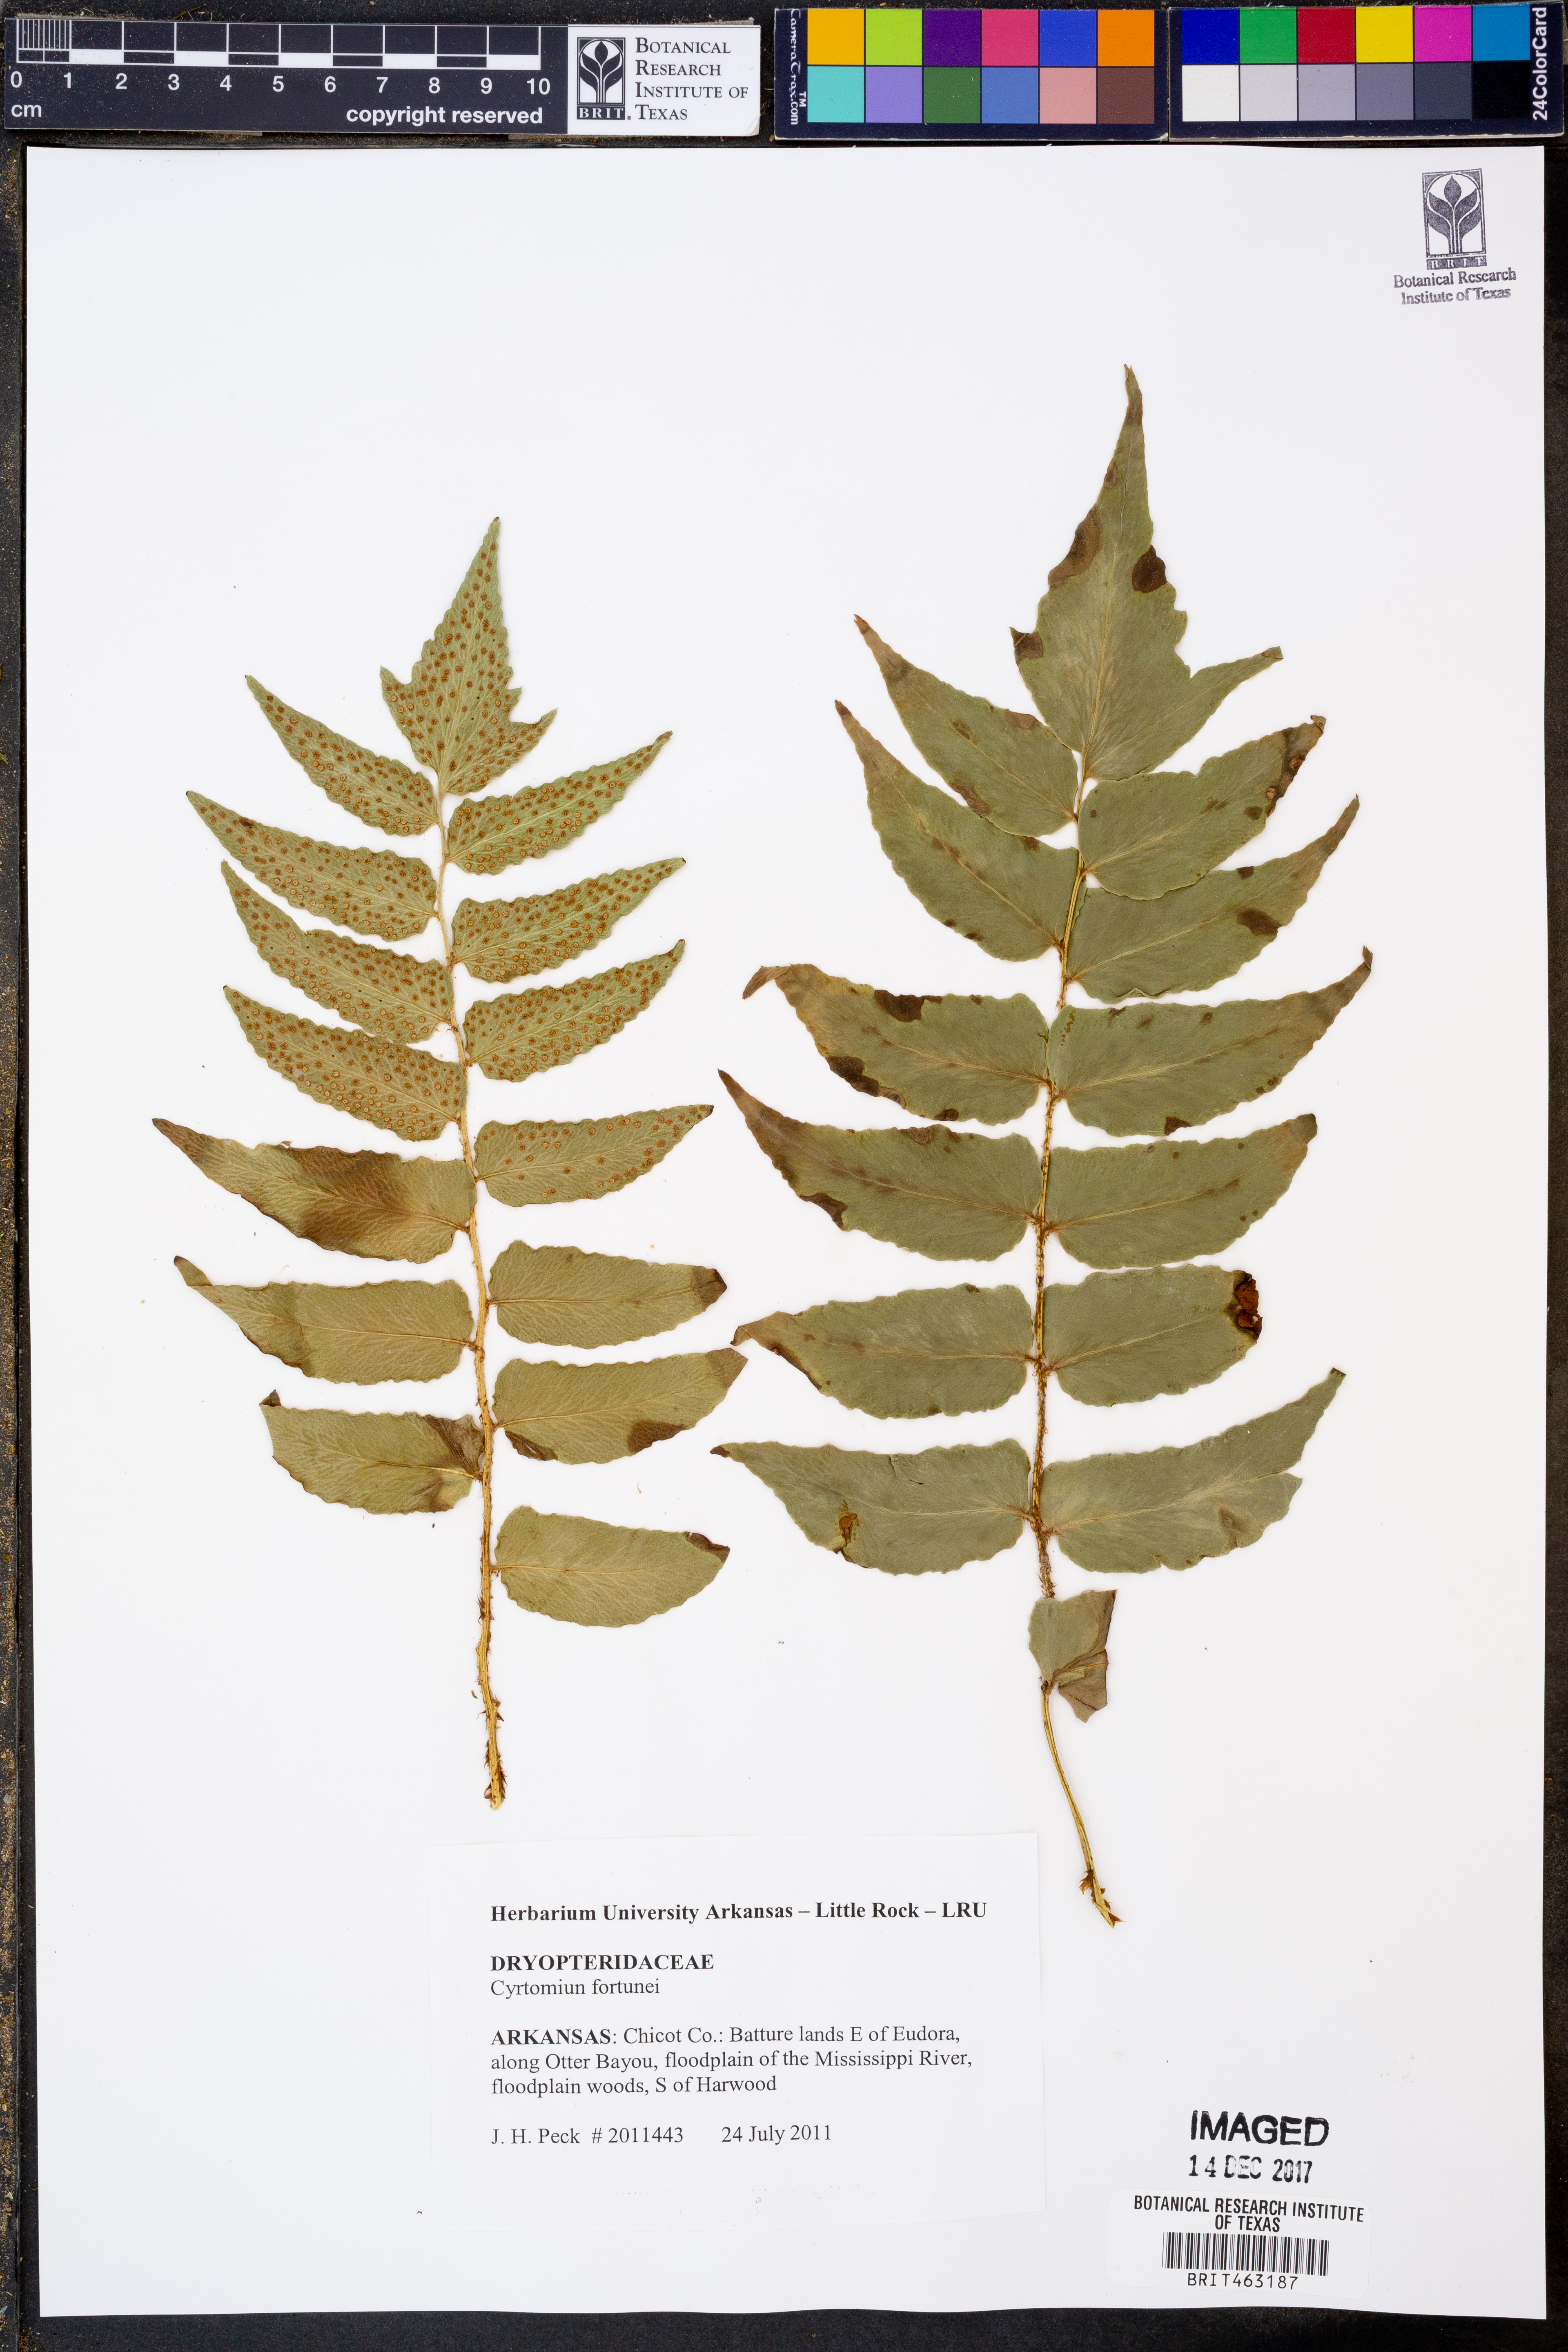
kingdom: Plantae
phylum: Tracheophyta
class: Polypodiopsida
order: Polypodiales
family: Dryopteridaceae
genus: Cyrtomium
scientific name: Cyrtomium fortunei
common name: Asian netvein hollyfern
